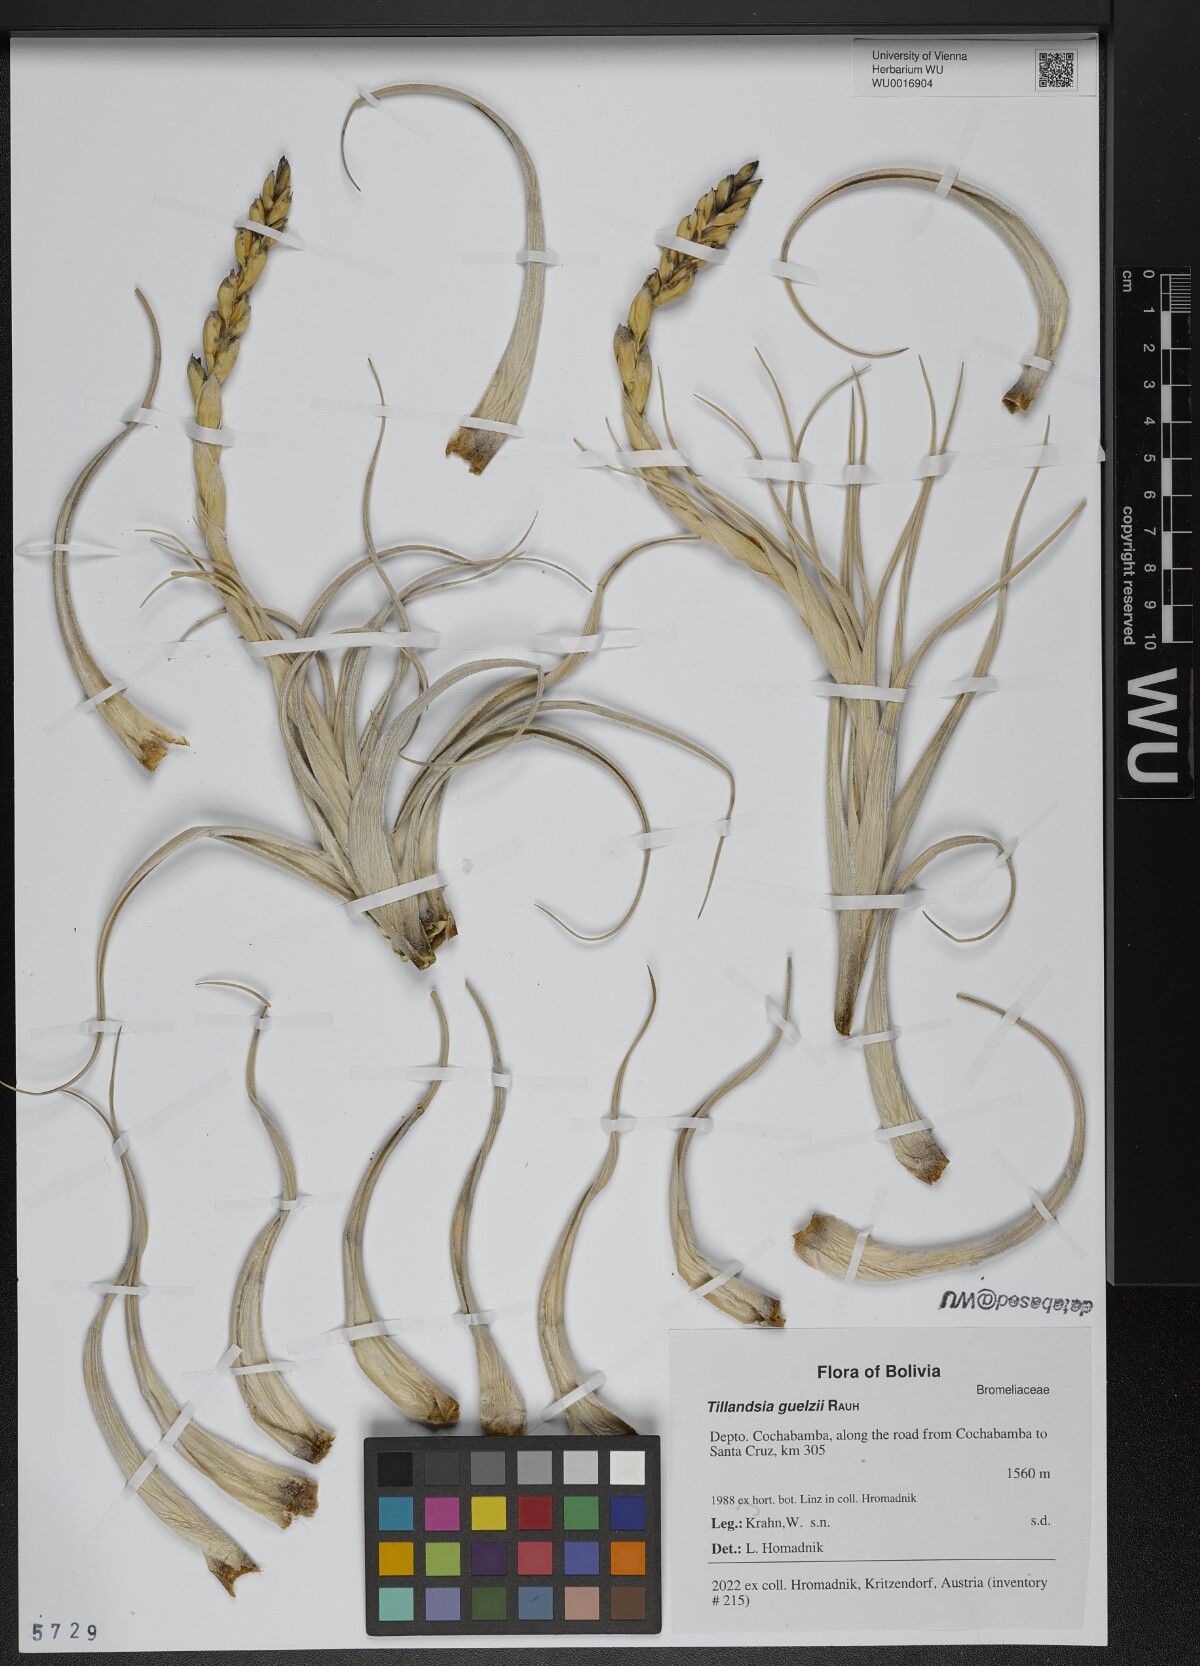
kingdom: Plantae
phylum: Tracheophyta
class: Liliopsida
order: Poales
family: Bromeliaceae
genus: Tillandsia
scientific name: Tillandsia guelzii
